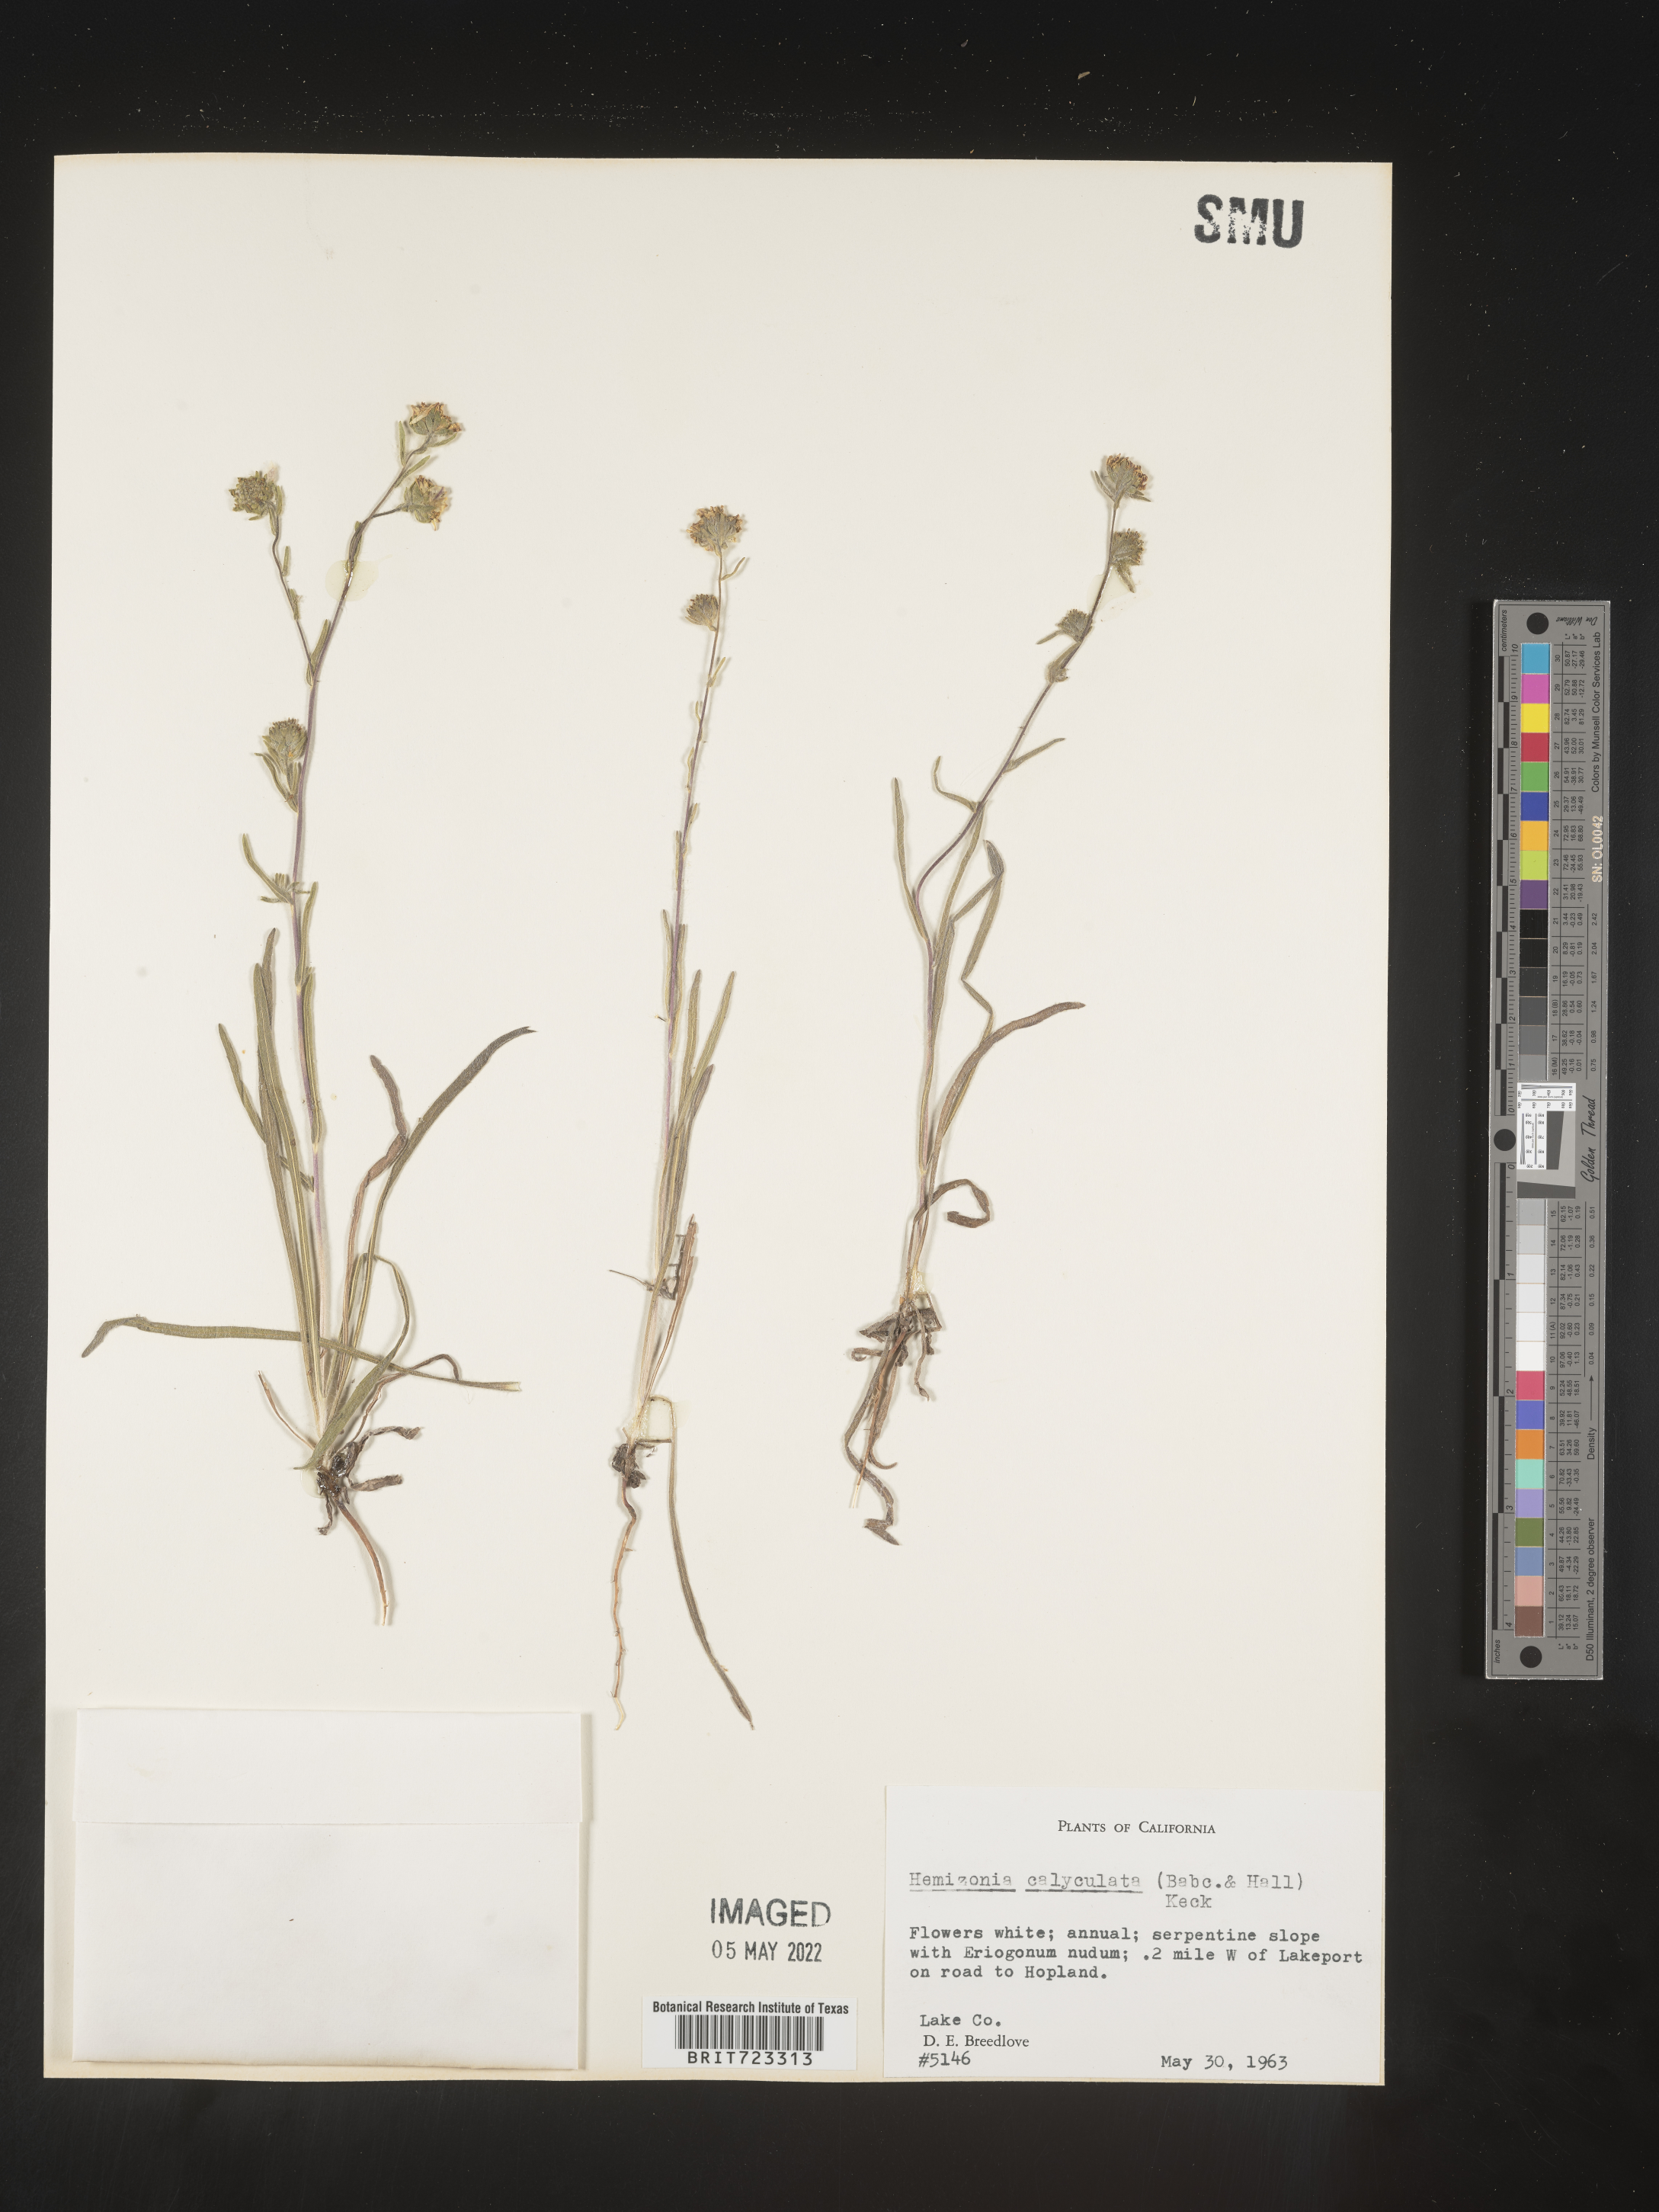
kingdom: Plantae
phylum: Tracheophyta
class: Magnoliopsida
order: Asterales
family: Asteraceae
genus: Hemizonia
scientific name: Hemizonia
